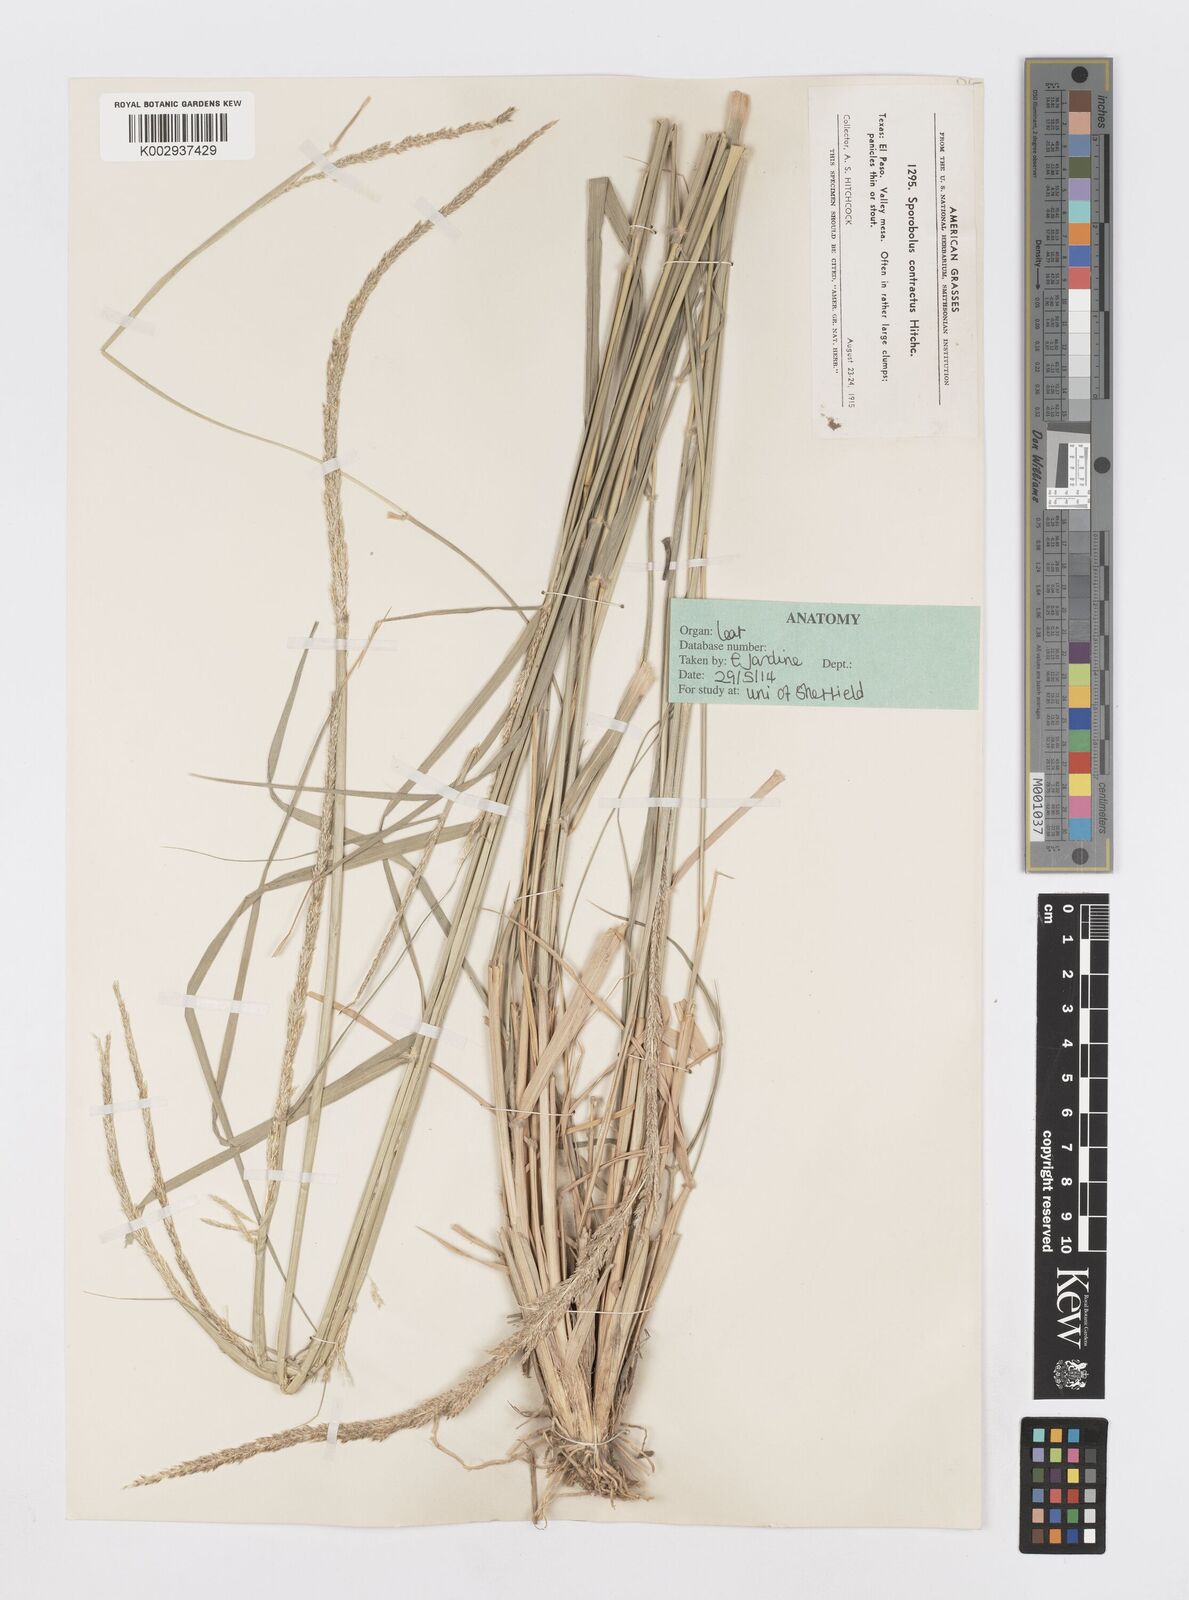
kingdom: Plantae
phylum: Tracheophyta
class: Liliopsida
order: Poales
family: Poaceae
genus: Sporobolus
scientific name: Sporobolus contractus
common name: Spike dropseed
